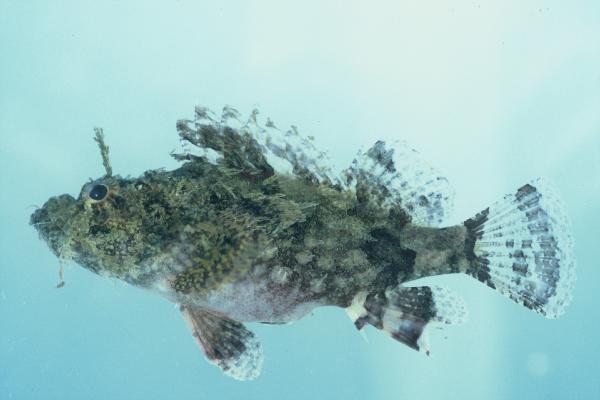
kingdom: Animalia
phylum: Chordata
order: Scorpaeniformes
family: Scorpaenidae
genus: Scorpaenopsis
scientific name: Scorpaenopsis papuensis
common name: Papuan scorpionfish
